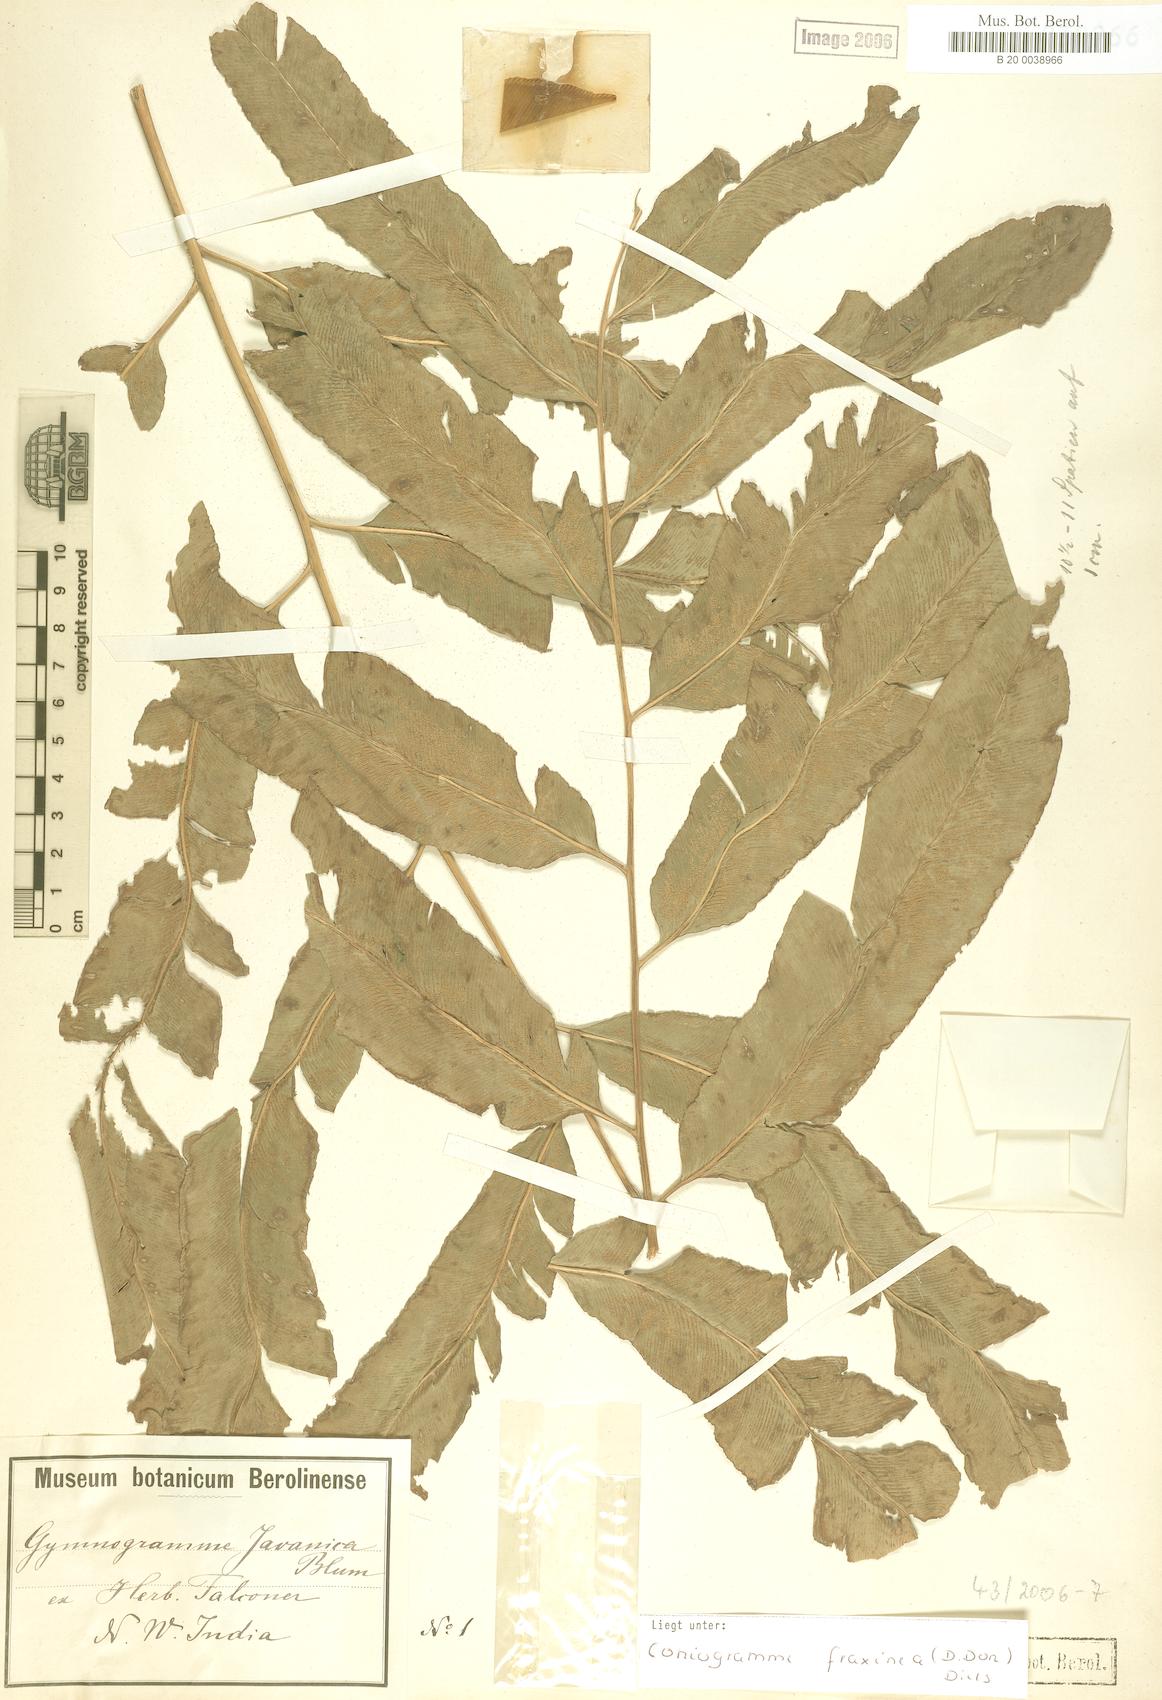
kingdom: Plantae
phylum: Tracheophyta
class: Polypodiopsida
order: Polypodiales
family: Pteridaceae
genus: Coniogramme
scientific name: Coniogramme fraxinea
